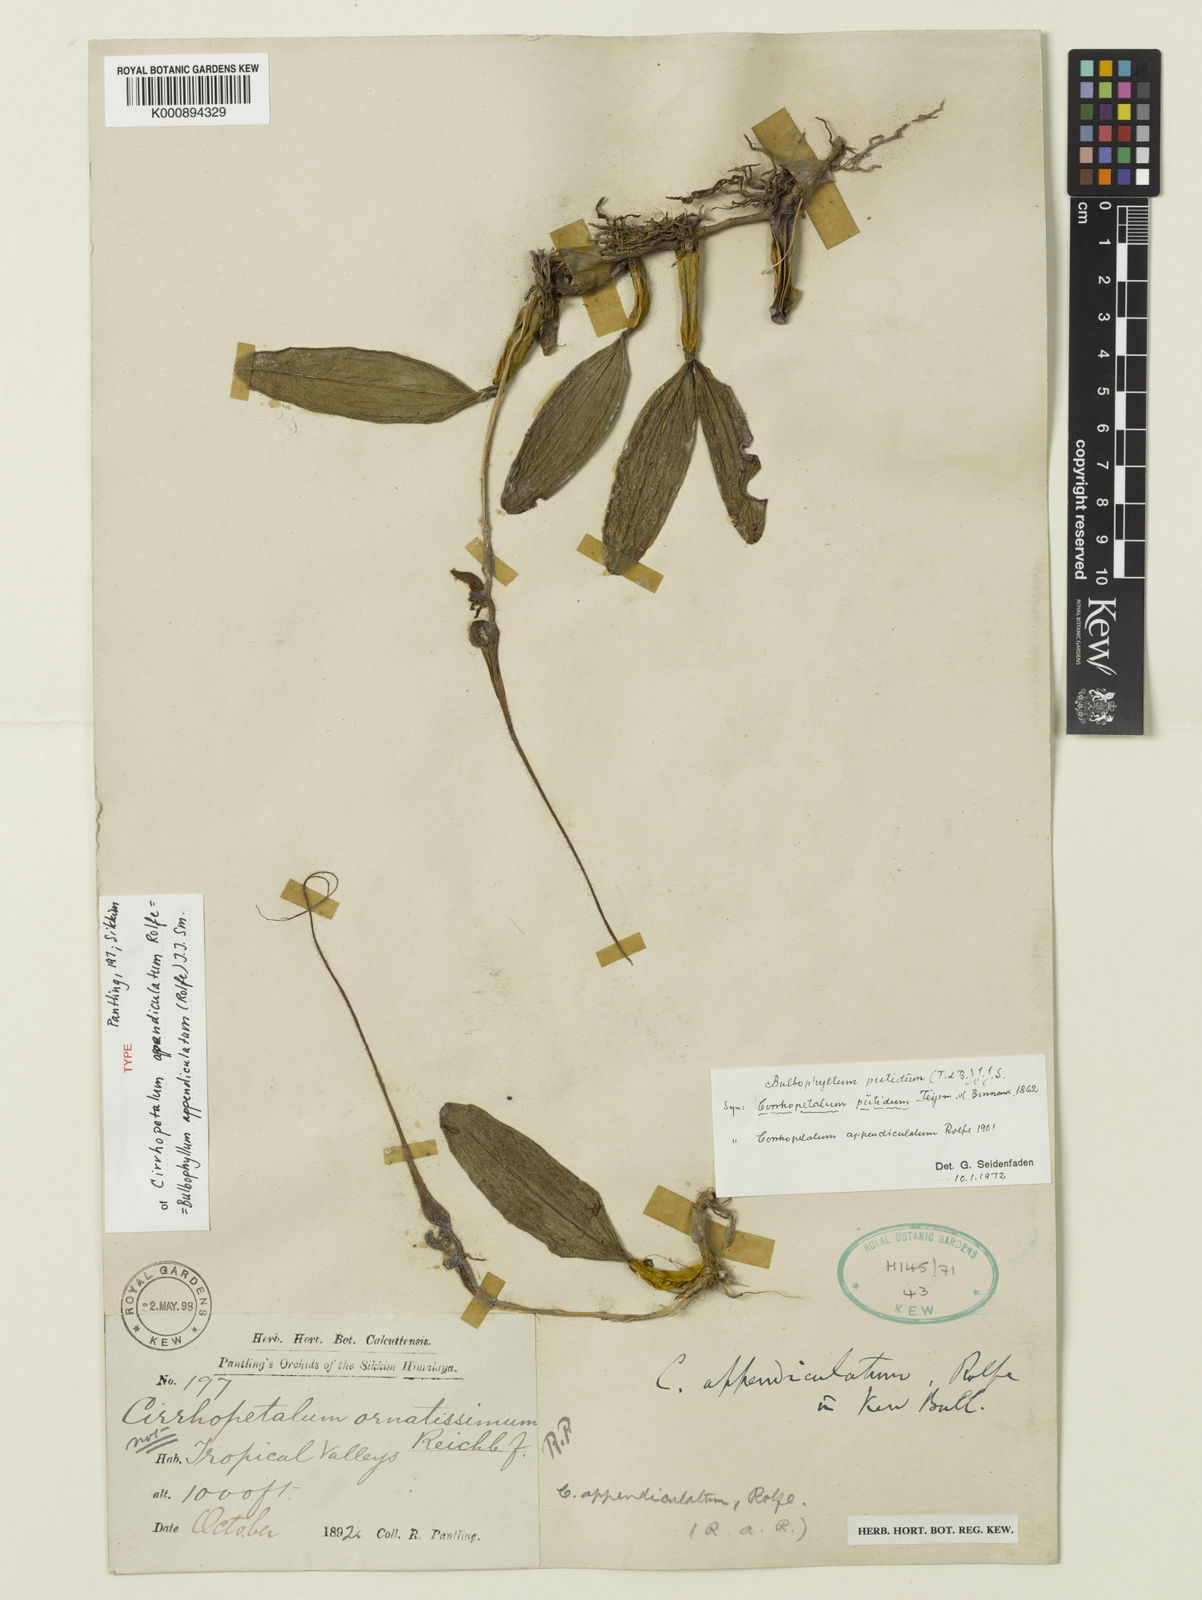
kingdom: Plantae
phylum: Tracheophyta
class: Liliopsida
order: Asparagales
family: Orchidaceae
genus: Bulbophyllum
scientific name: Bulbophyllum appendiculatum
